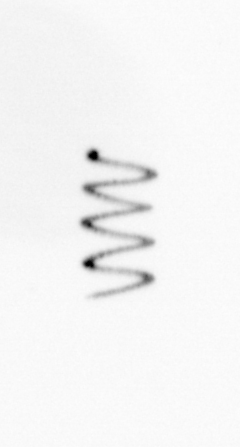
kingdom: Chromista
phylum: Ochrophyta
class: Bacillariophyceae
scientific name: Bacillariophyceae
